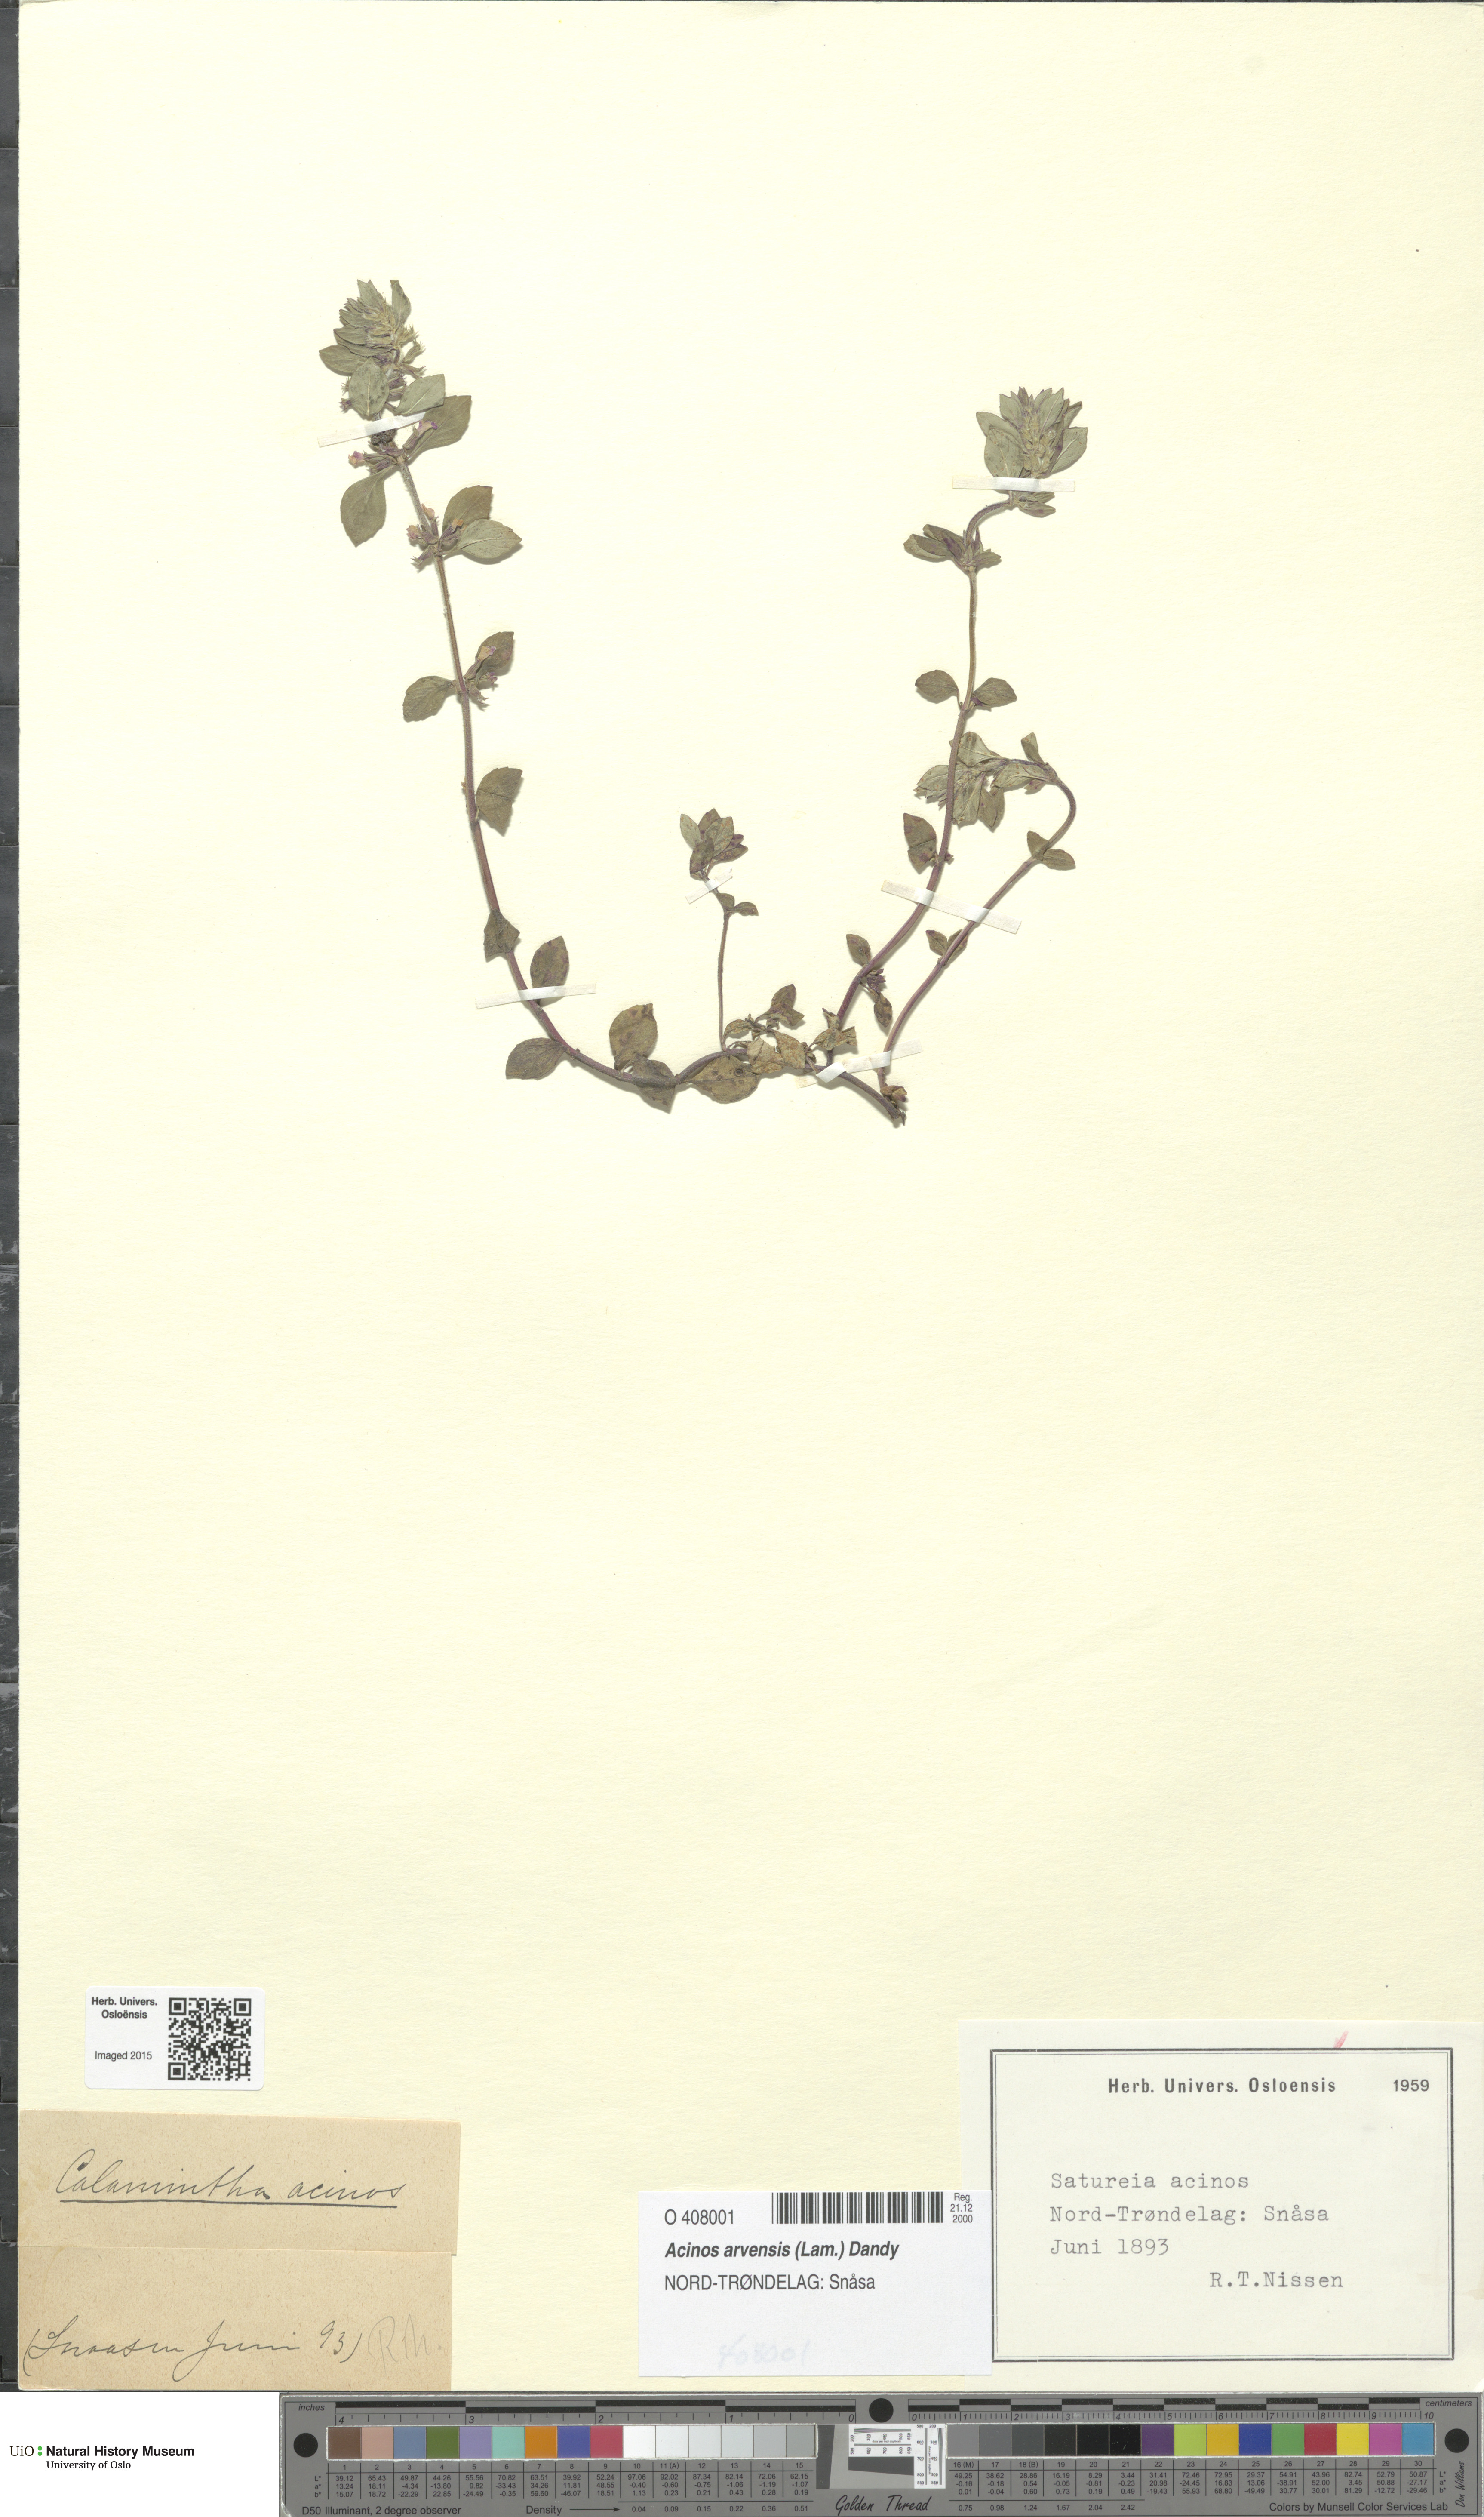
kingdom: Plantae
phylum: Tracheophyta
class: Magnoliopsida
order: Lamiales
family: Lamiaceae
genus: Clinopodium
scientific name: Clinopodium acinos
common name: Basil thyme
